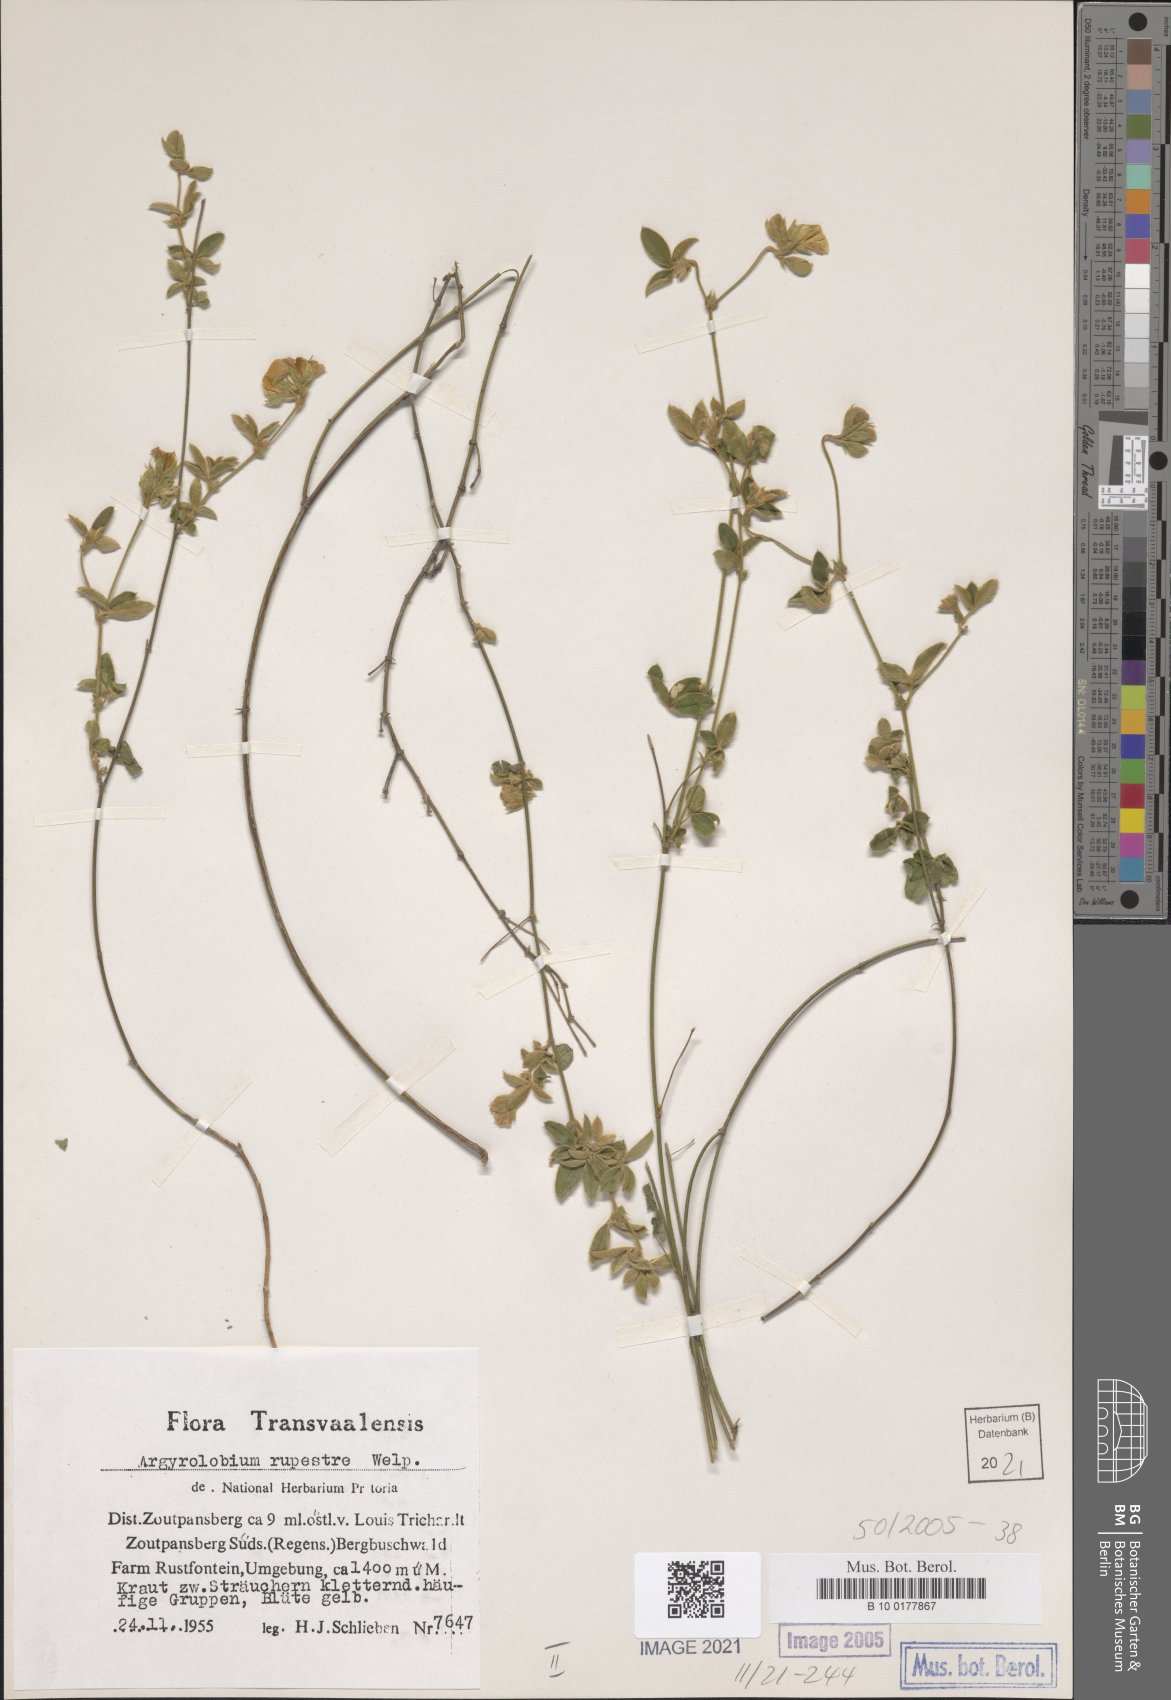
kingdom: Plantae
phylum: Tracheophyta
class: Magnoliopsida
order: Fabales
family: Fabaceae
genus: Argyrolobium
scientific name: Argyrolobium rupestre
